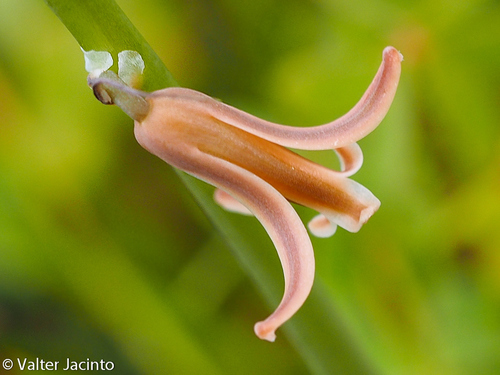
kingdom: Plantae
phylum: Tracheophyta
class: Liliopsida
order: Asparagales
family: Asparagaceae
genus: Dipcadi
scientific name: Dipcadi serotinum
